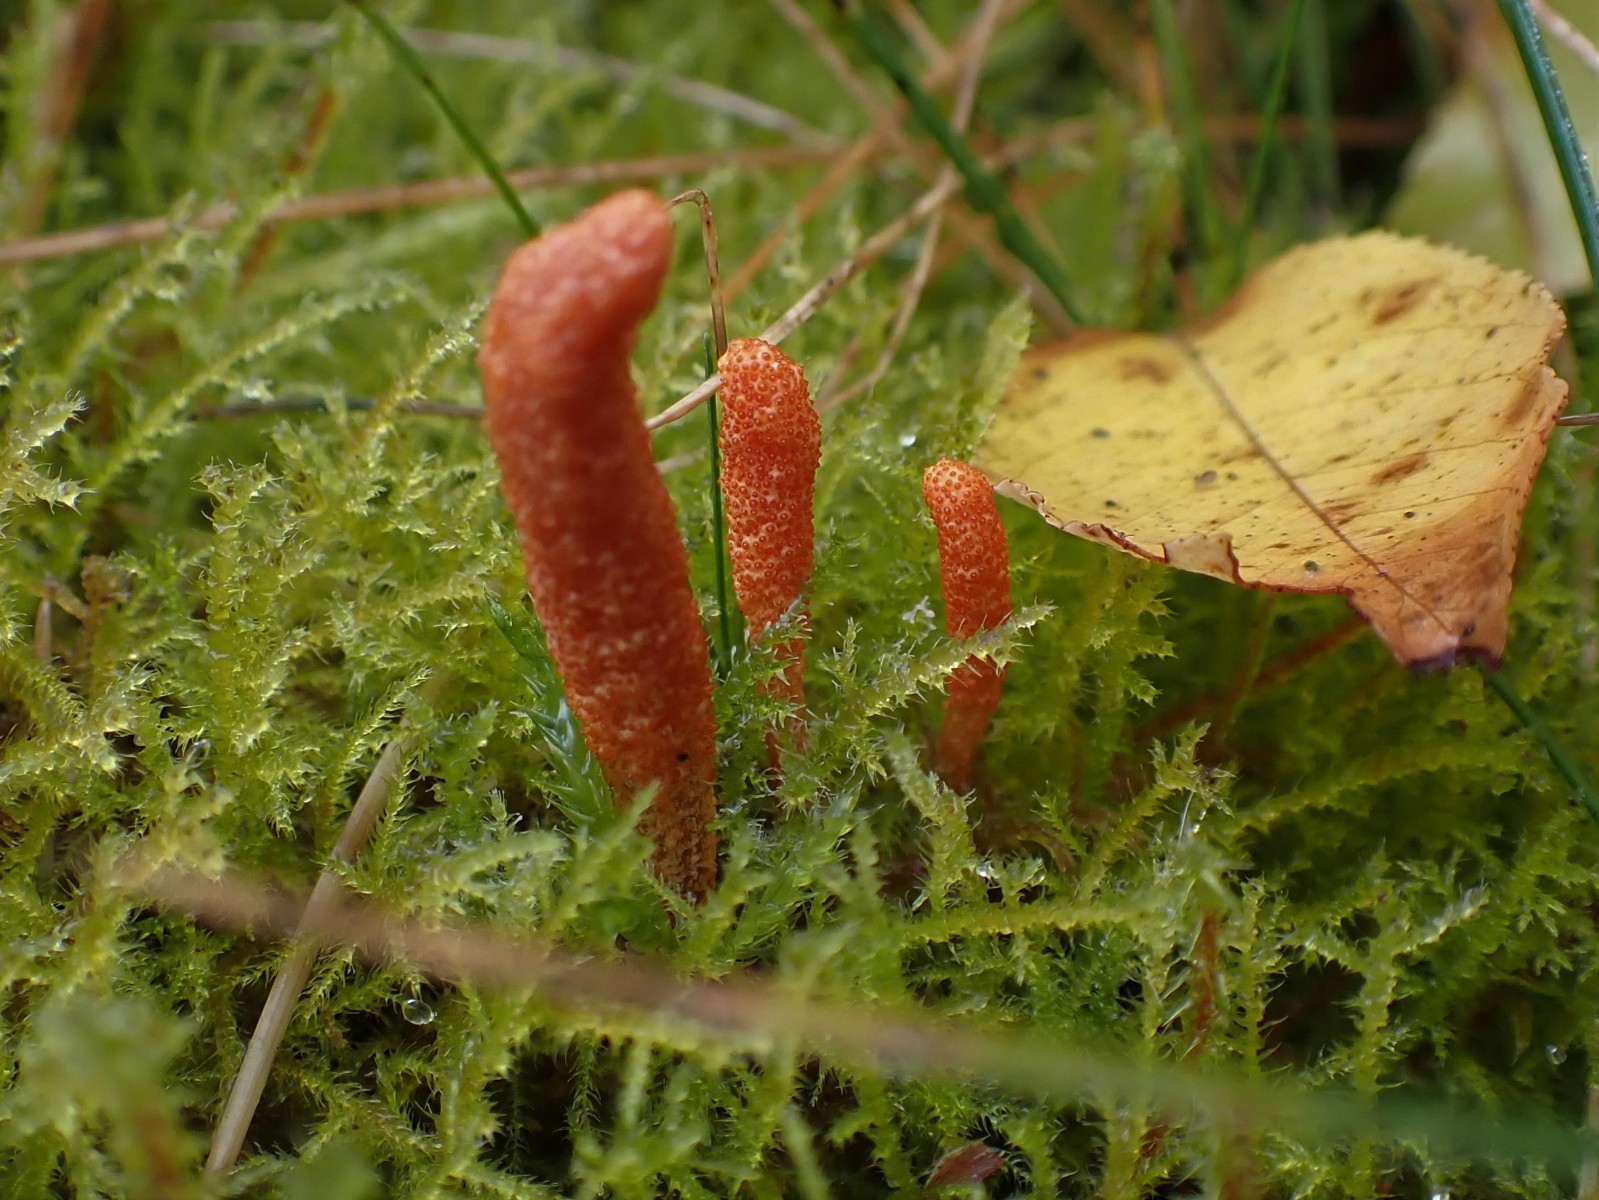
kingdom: Fungi
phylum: Ascomycota
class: Sordariomycetes
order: Hypocreales
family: Cordycipitaceae
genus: Cordyceps
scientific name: Cordyceps militaris
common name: puppe-snyltekølle
